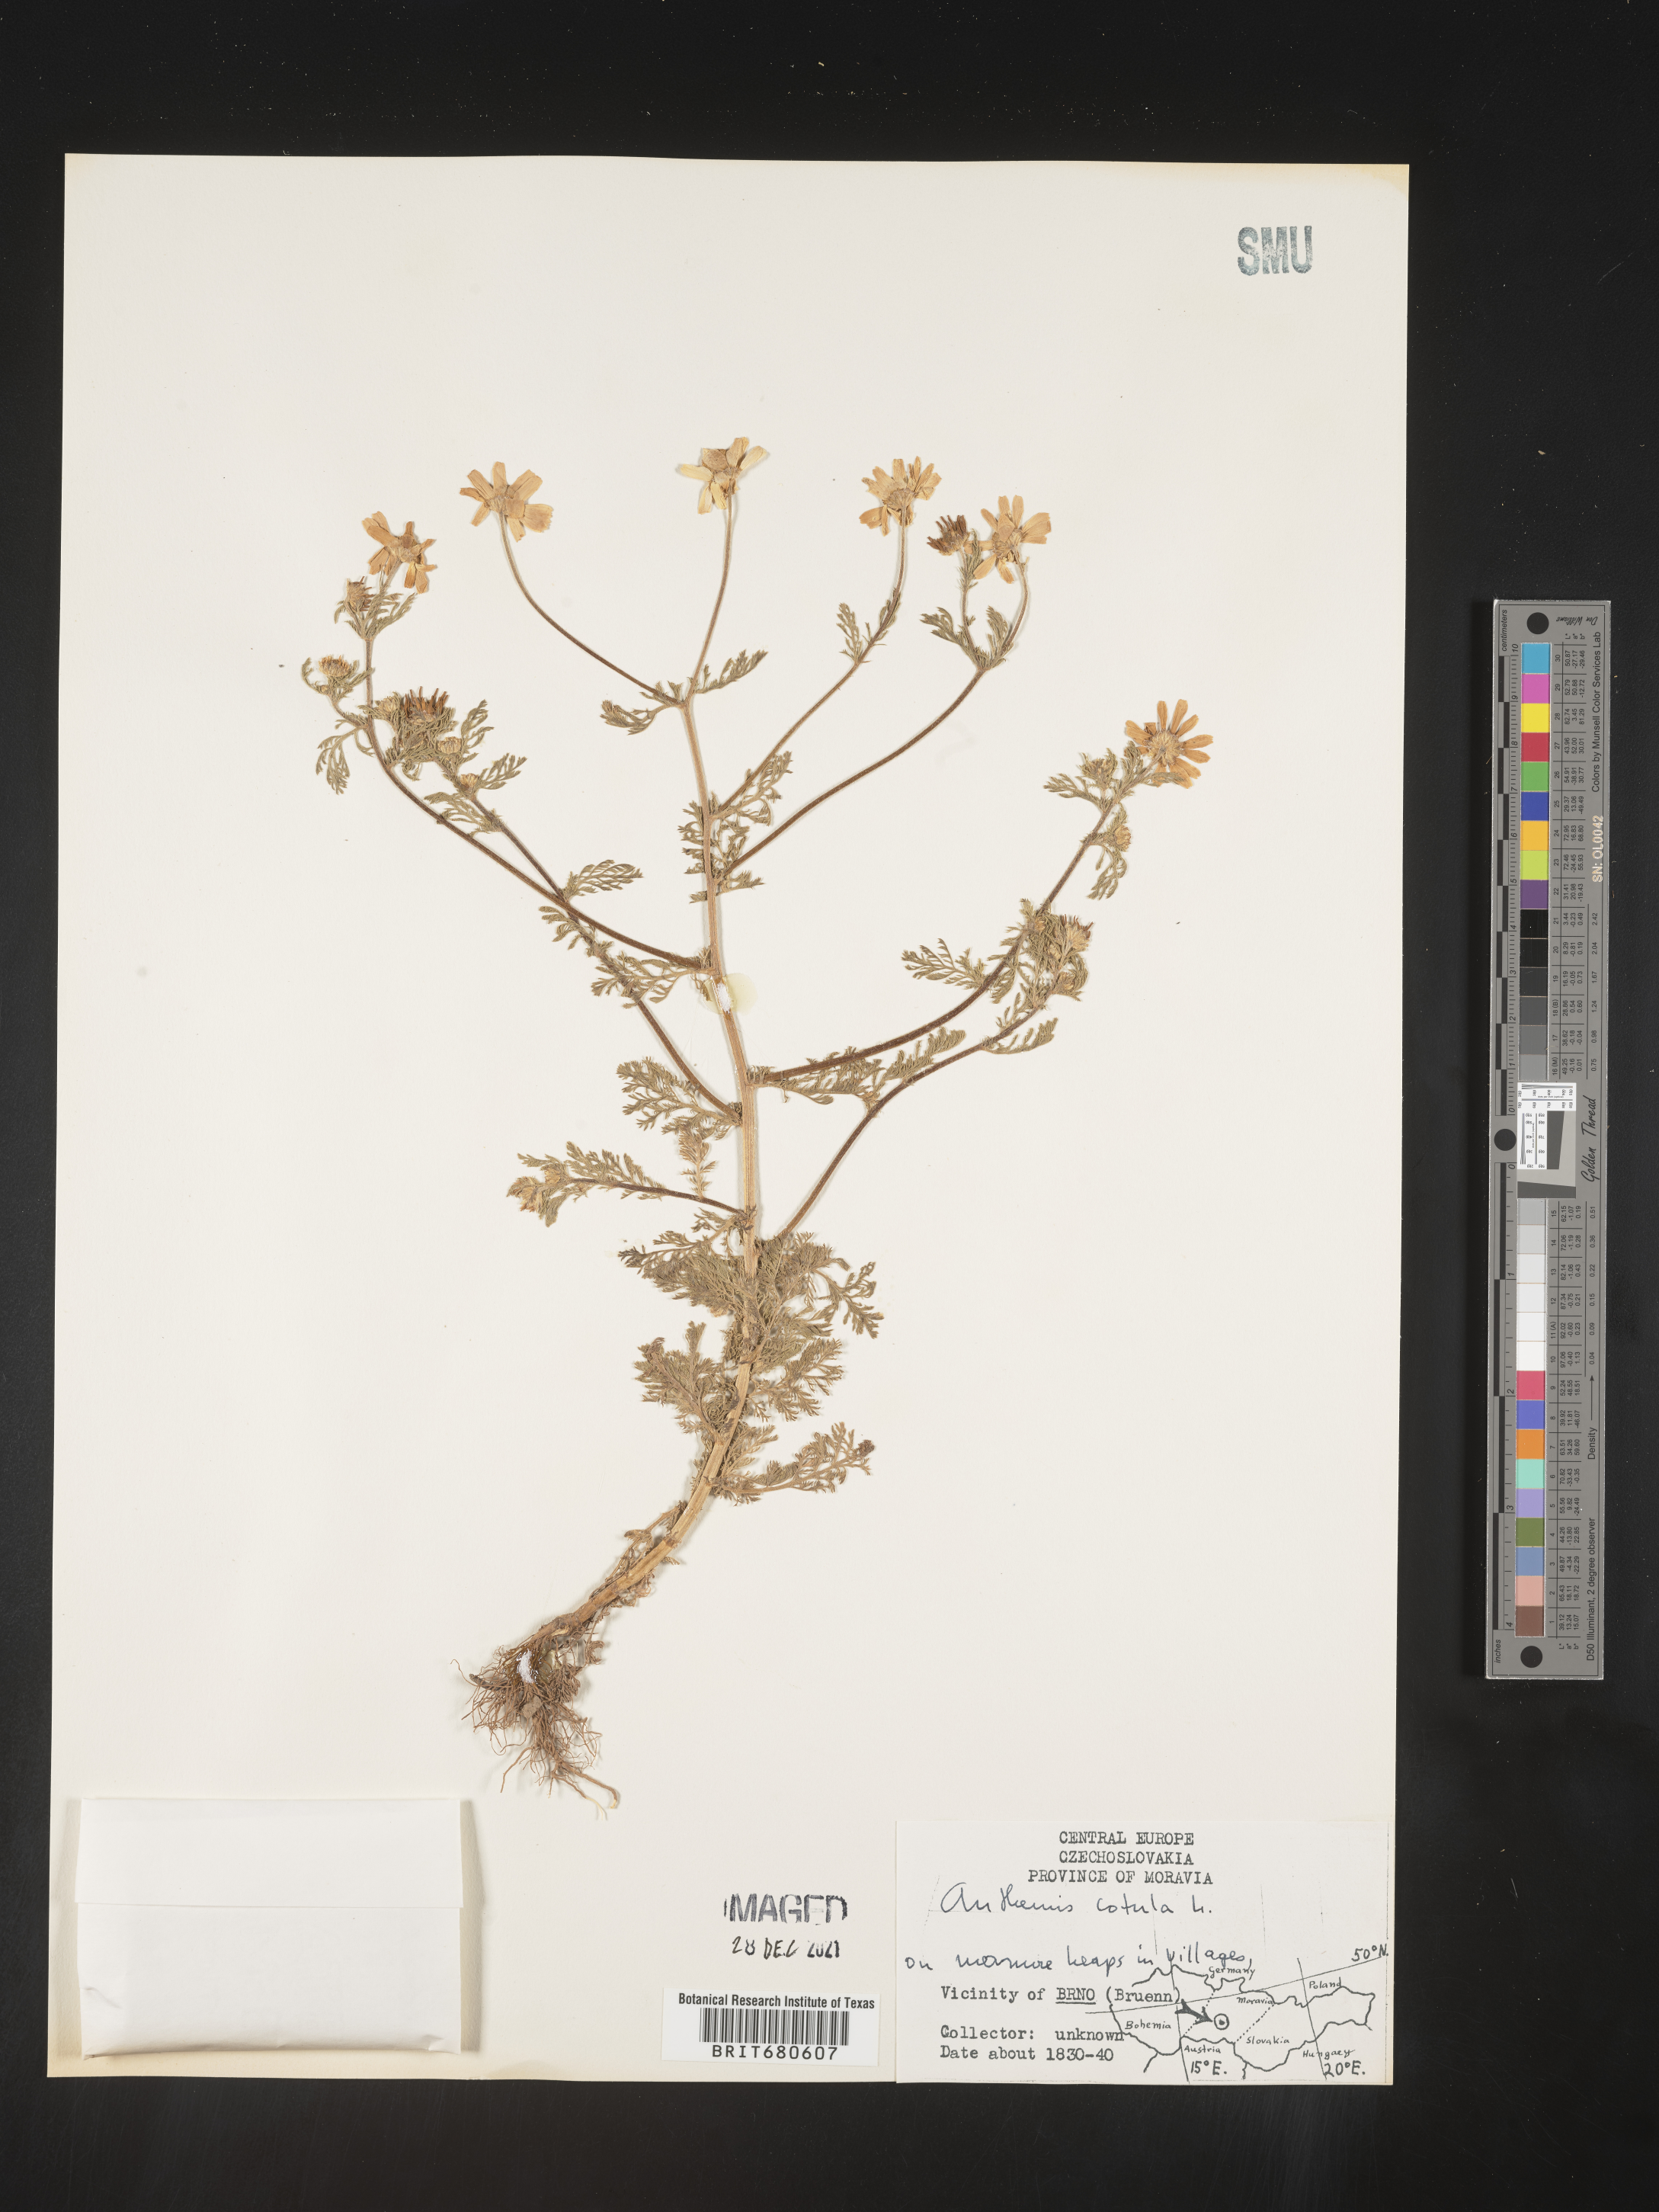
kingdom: Plantae
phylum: Tracheophyta
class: Magnoliopsida
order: Asterales
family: Asteraceae
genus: Anthemis
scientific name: Anthemis
